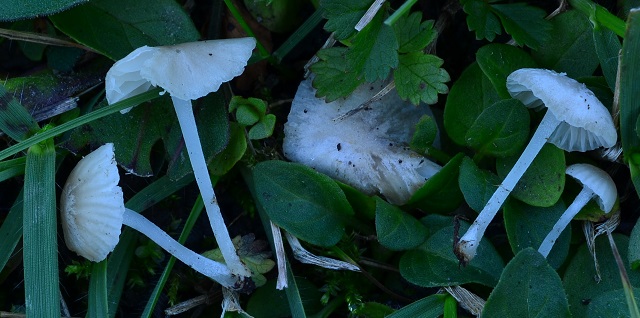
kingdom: Fungi
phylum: Basidiomycota
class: Agaricomycetes
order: Agaricales
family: Mycenaceae
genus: Hemimycena
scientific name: Hemimycena sordida
